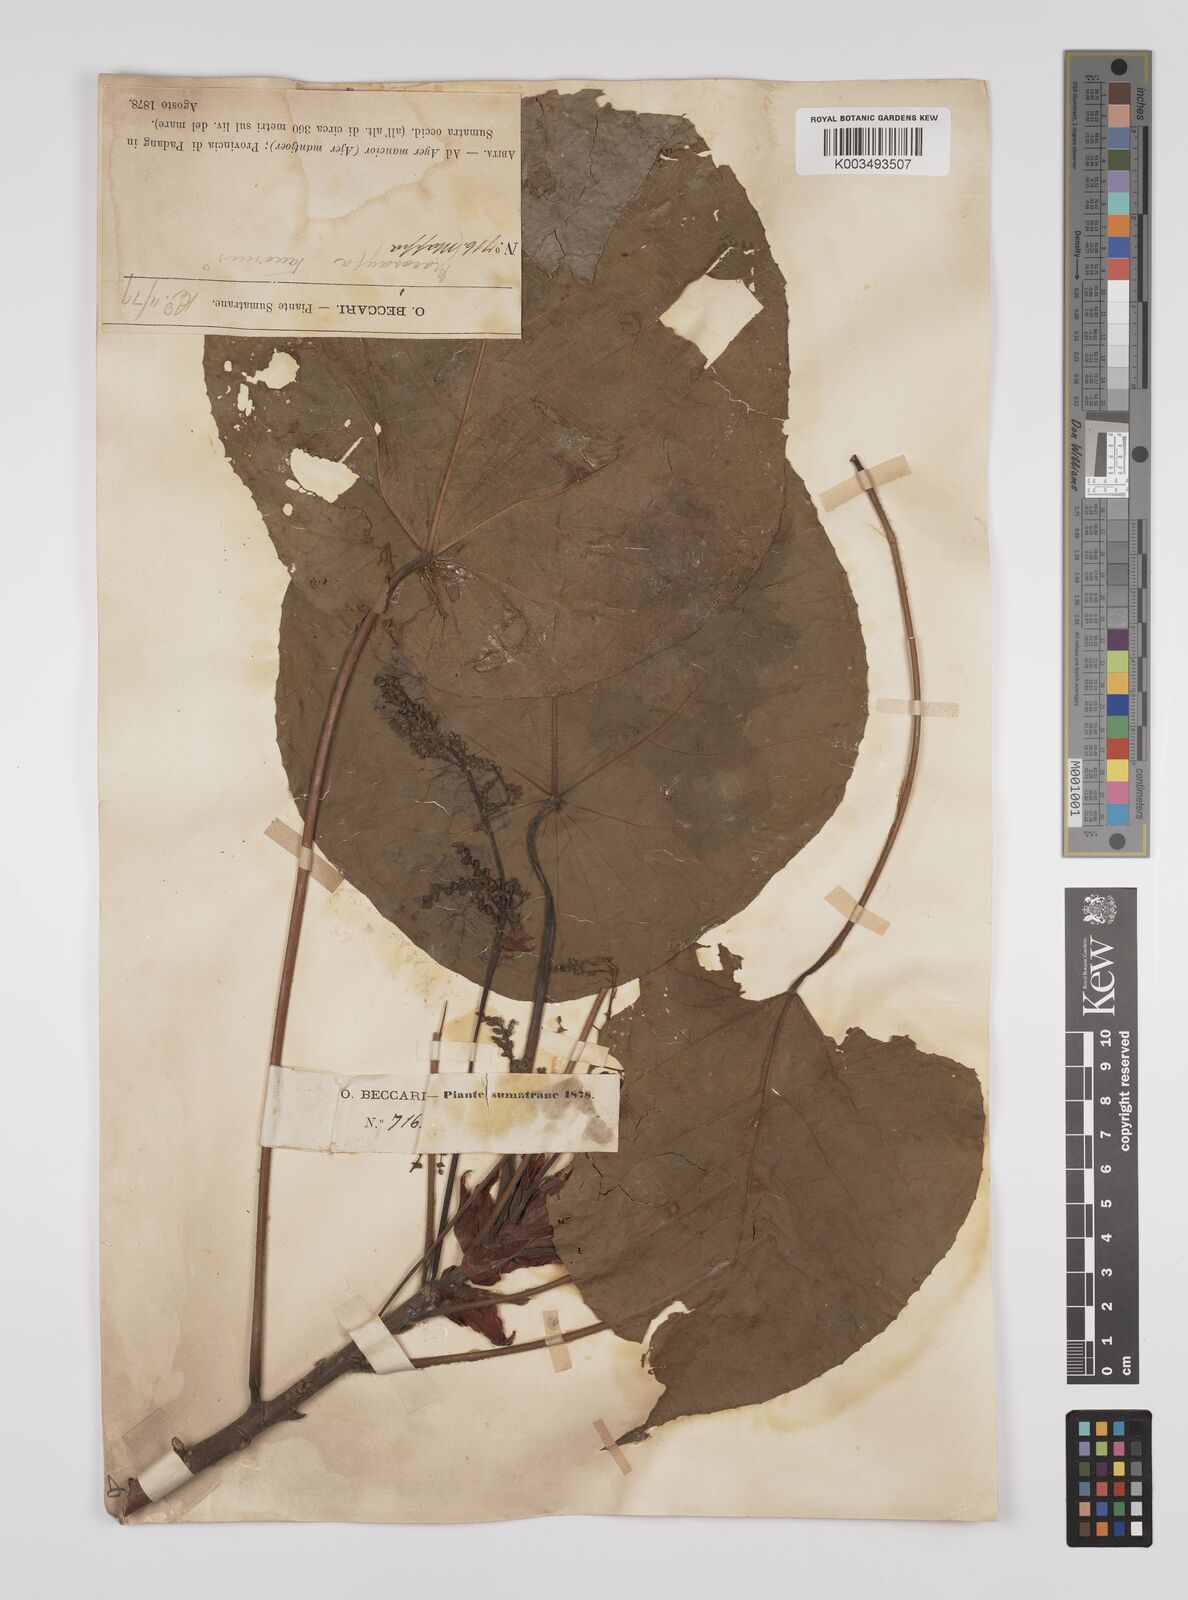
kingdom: Plantae
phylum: Tracheophyta
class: Magnoliopsida
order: Malpighiales
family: Euphorbiaceae
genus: Macaranga
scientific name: Macaranga tanarius
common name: Parasol leaf tree
